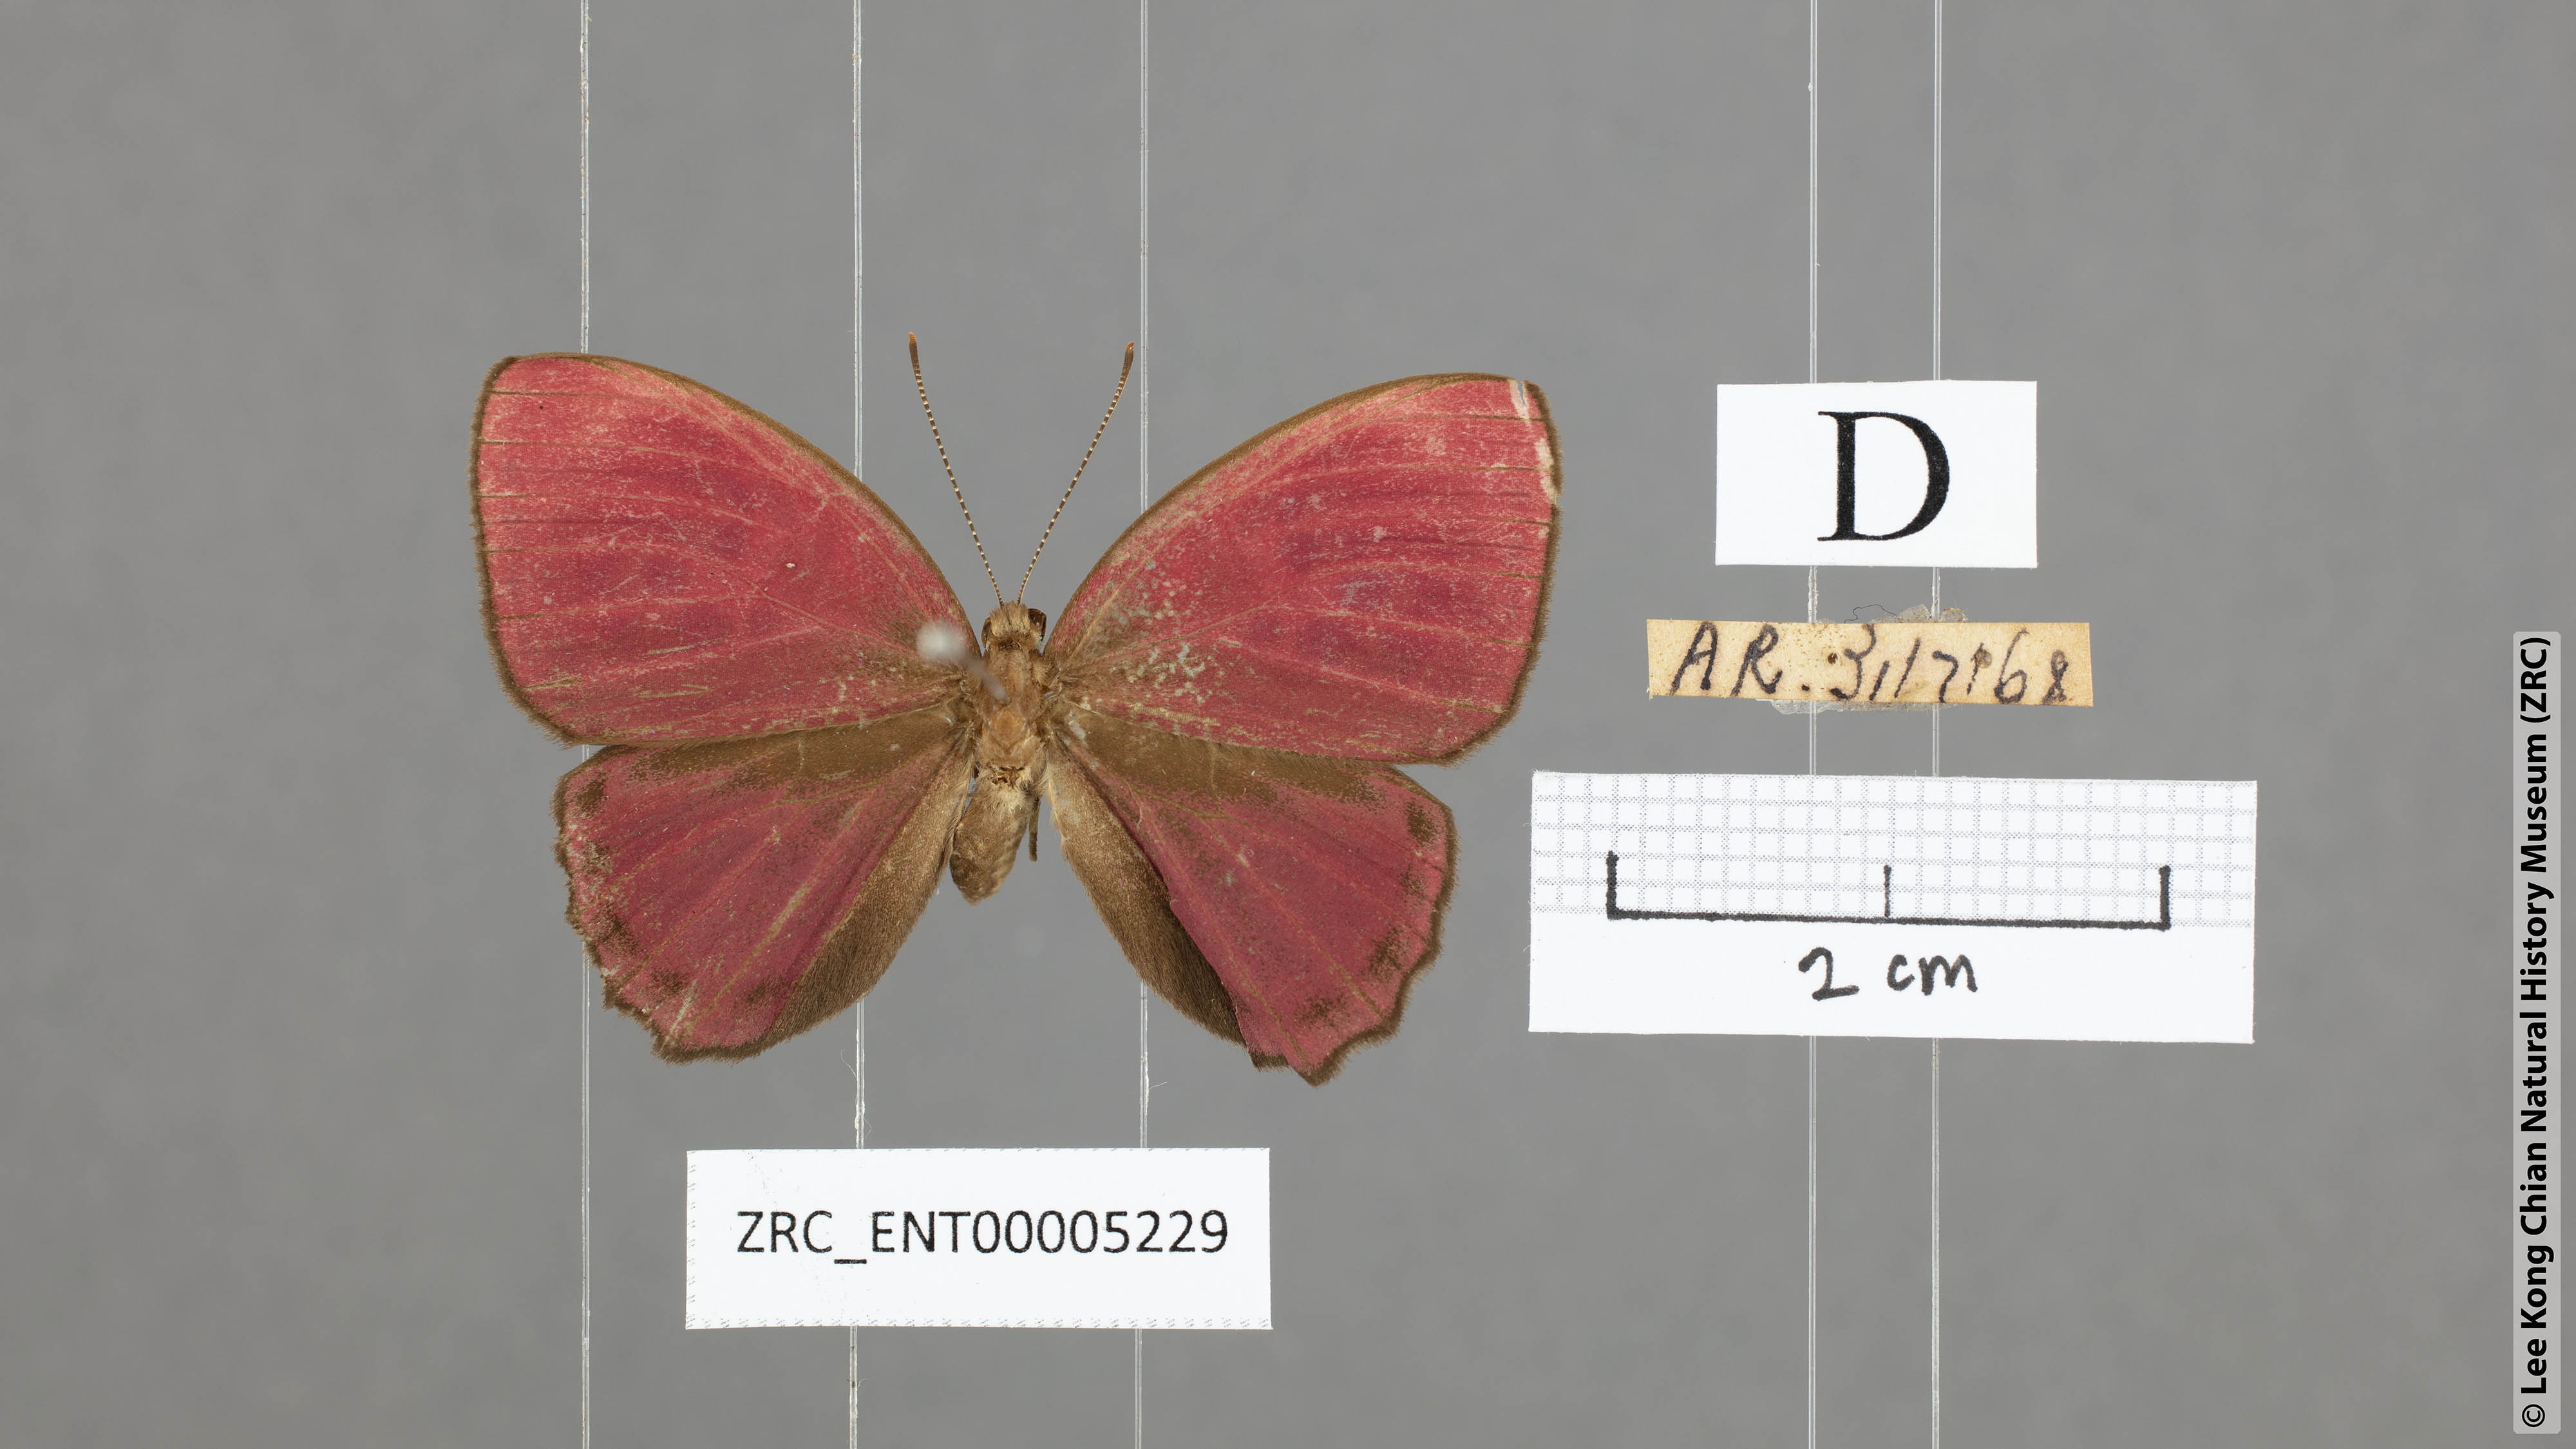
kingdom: Animalia
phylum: Arthropoda
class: Insecta
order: Lepidoptera
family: Riodinidae
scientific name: Riodinidae
